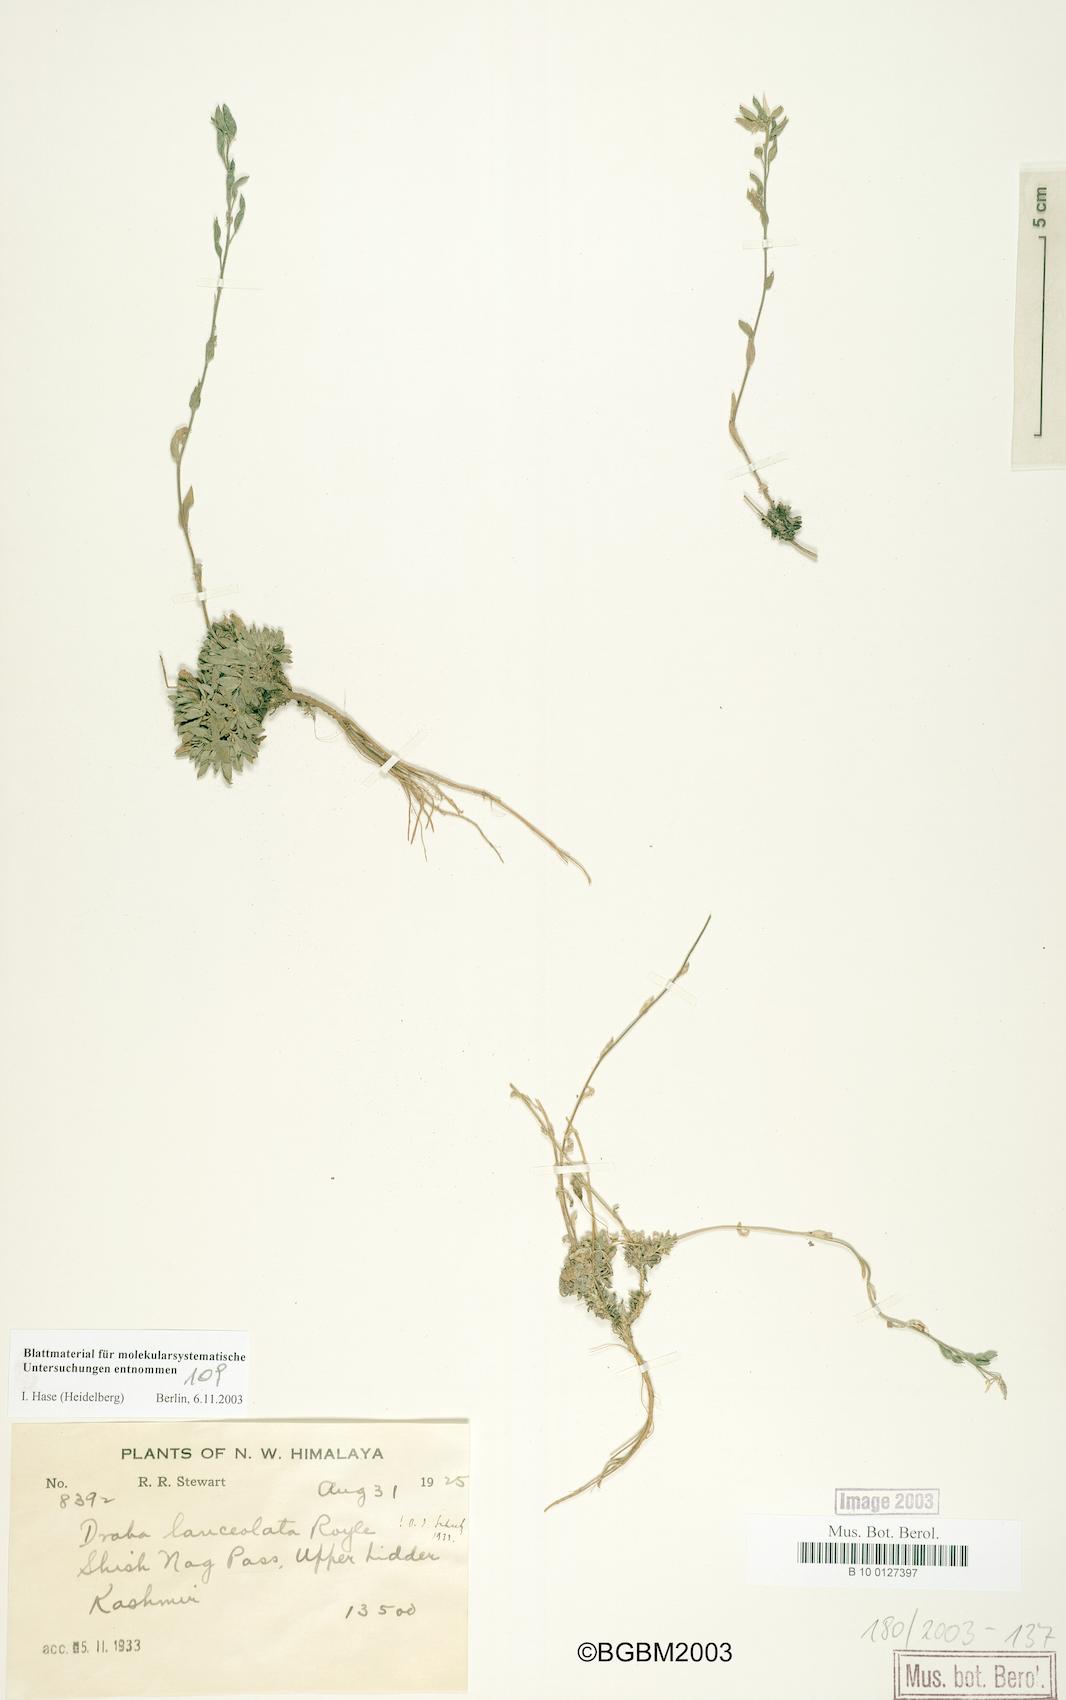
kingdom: Plantae
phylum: Tracheophyta
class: Magnoliopsida
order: Brassicales
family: Brassicaceae
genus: Draba
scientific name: Draba lanceolata
